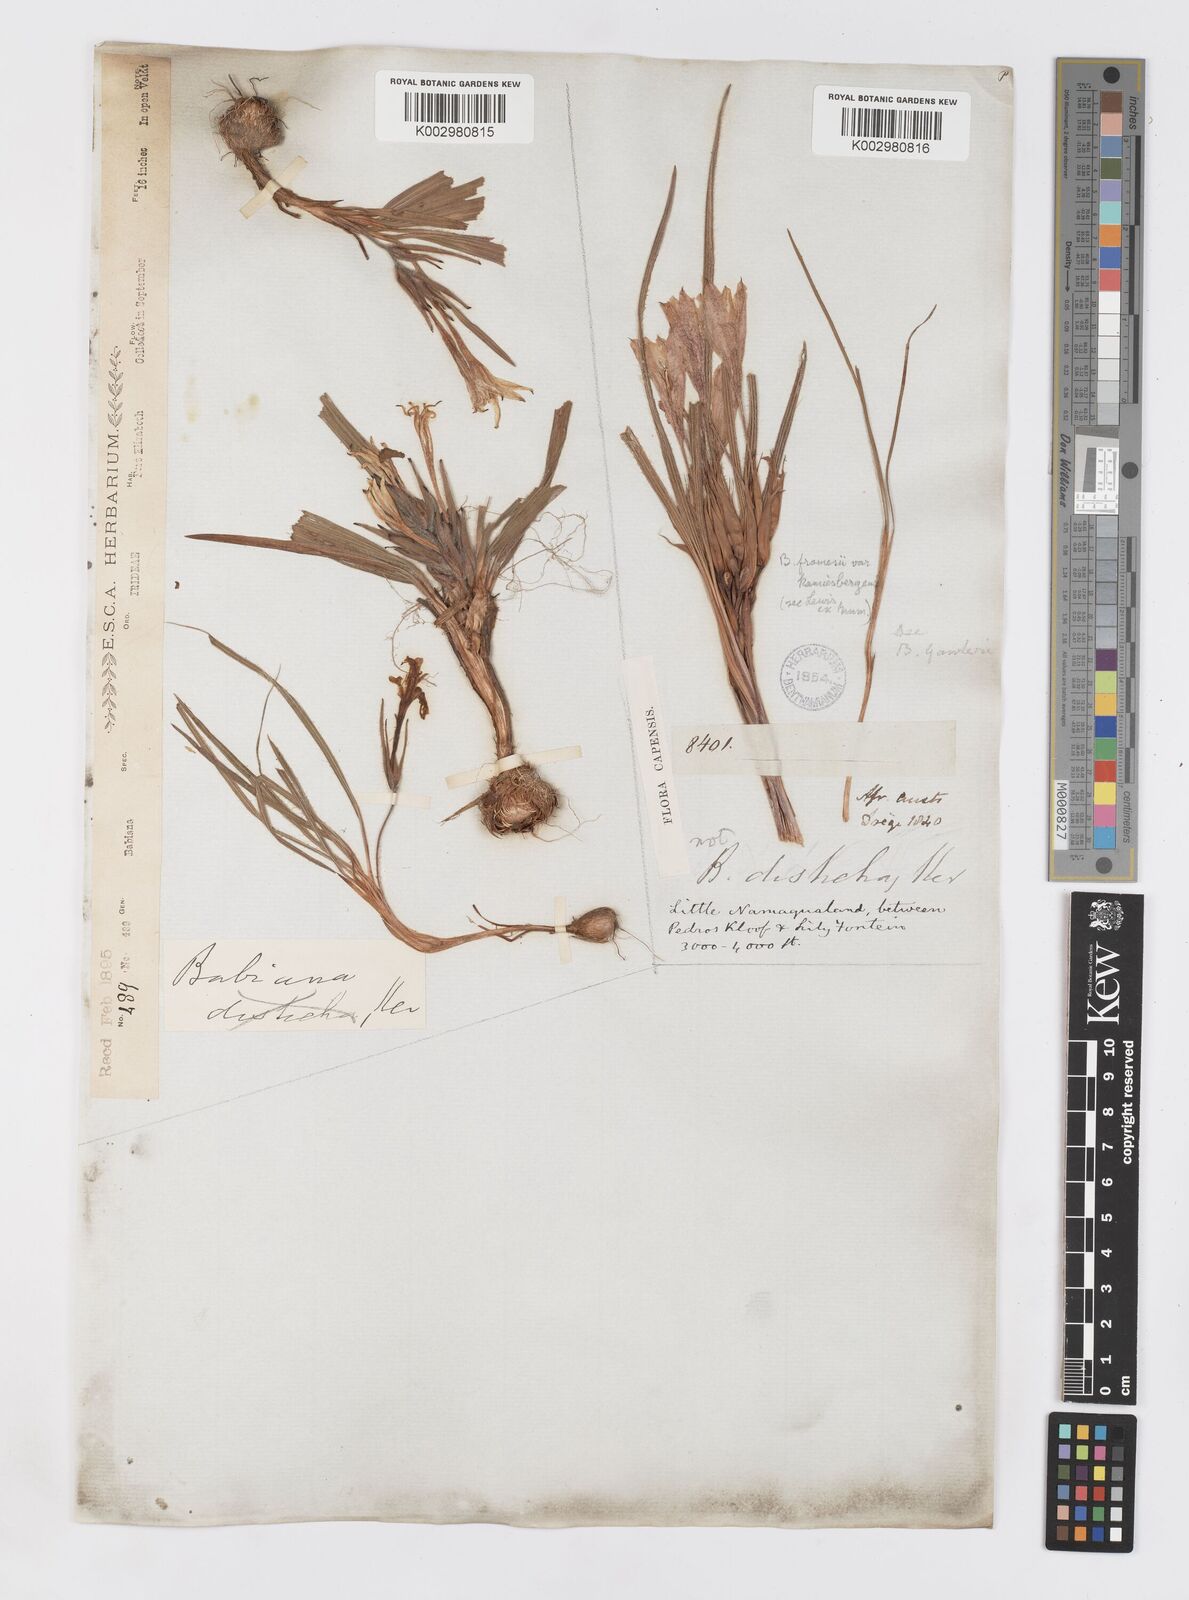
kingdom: Plantae
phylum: Tracheophyta
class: Liliopsida
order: Asparagales
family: Iridaceae
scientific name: Iridaceae
